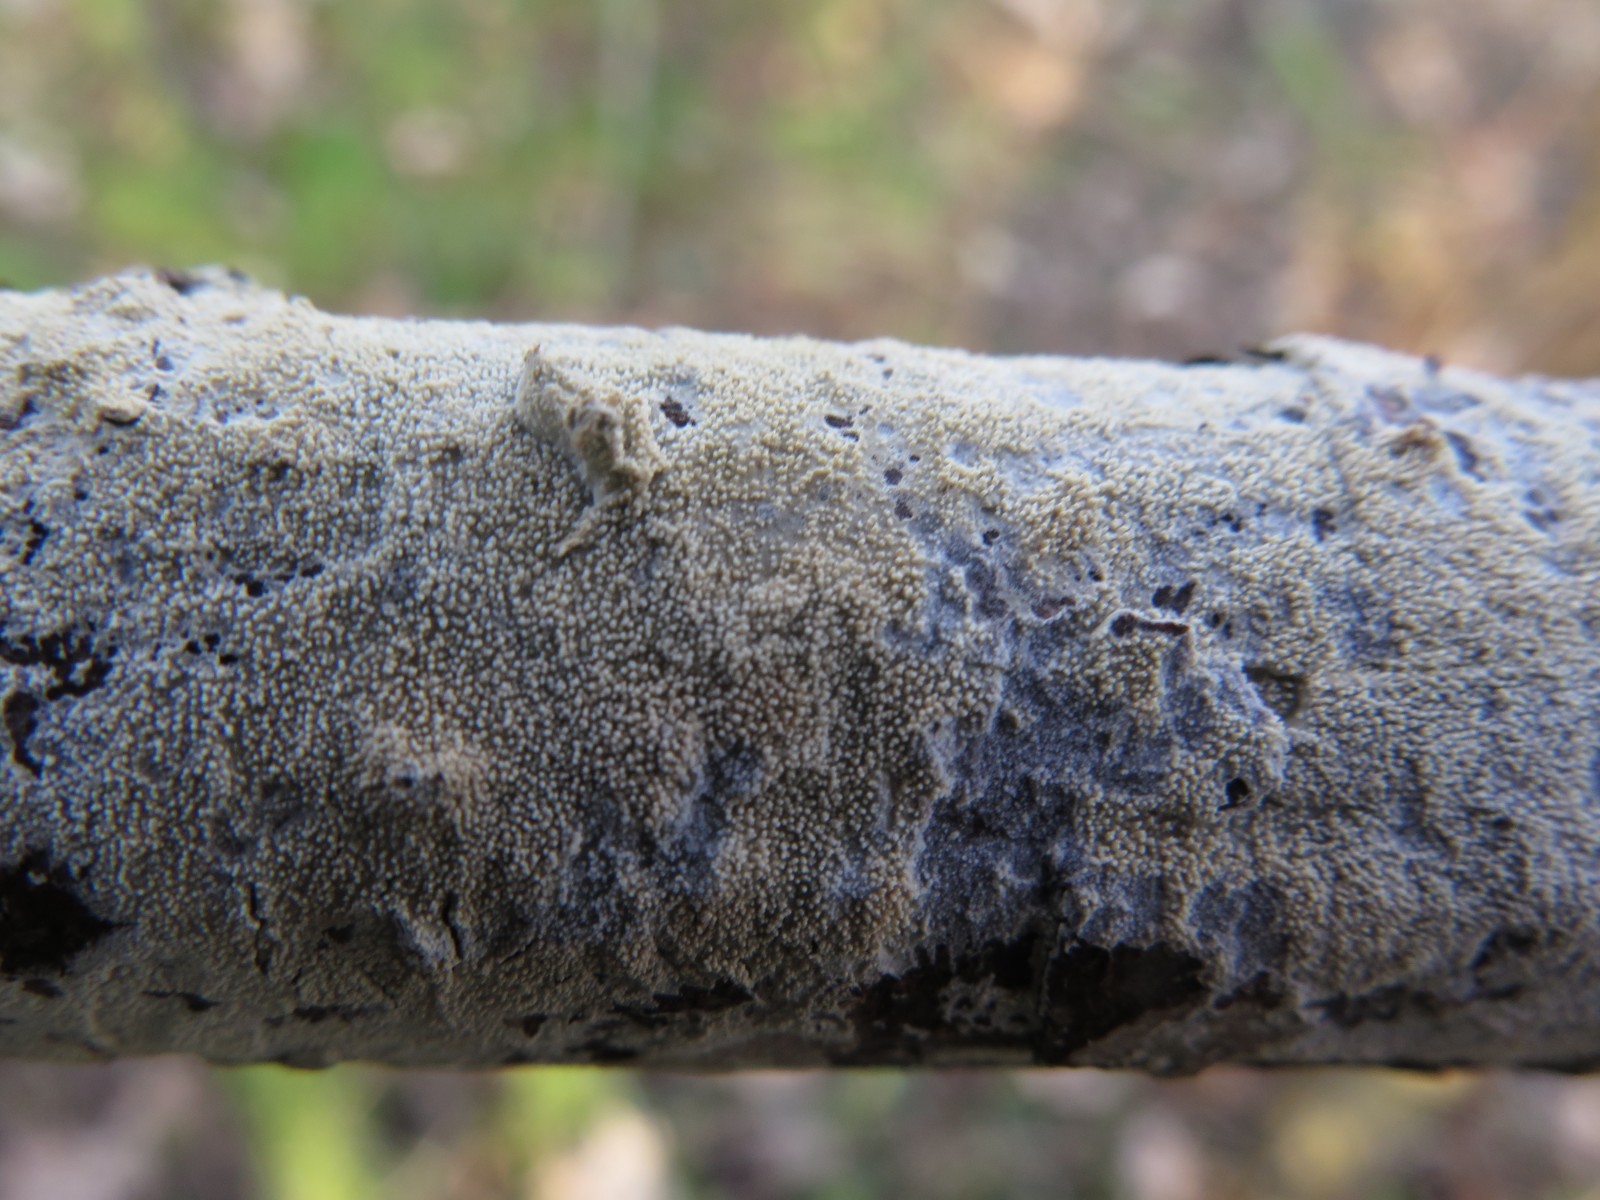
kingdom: Fungi
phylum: Basidiomycota
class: Agaricomycetes
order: Hymenochaetales
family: Hyphodontiaceae
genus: Hyphodontia
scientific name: Hyphodontia
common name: nålehinde
